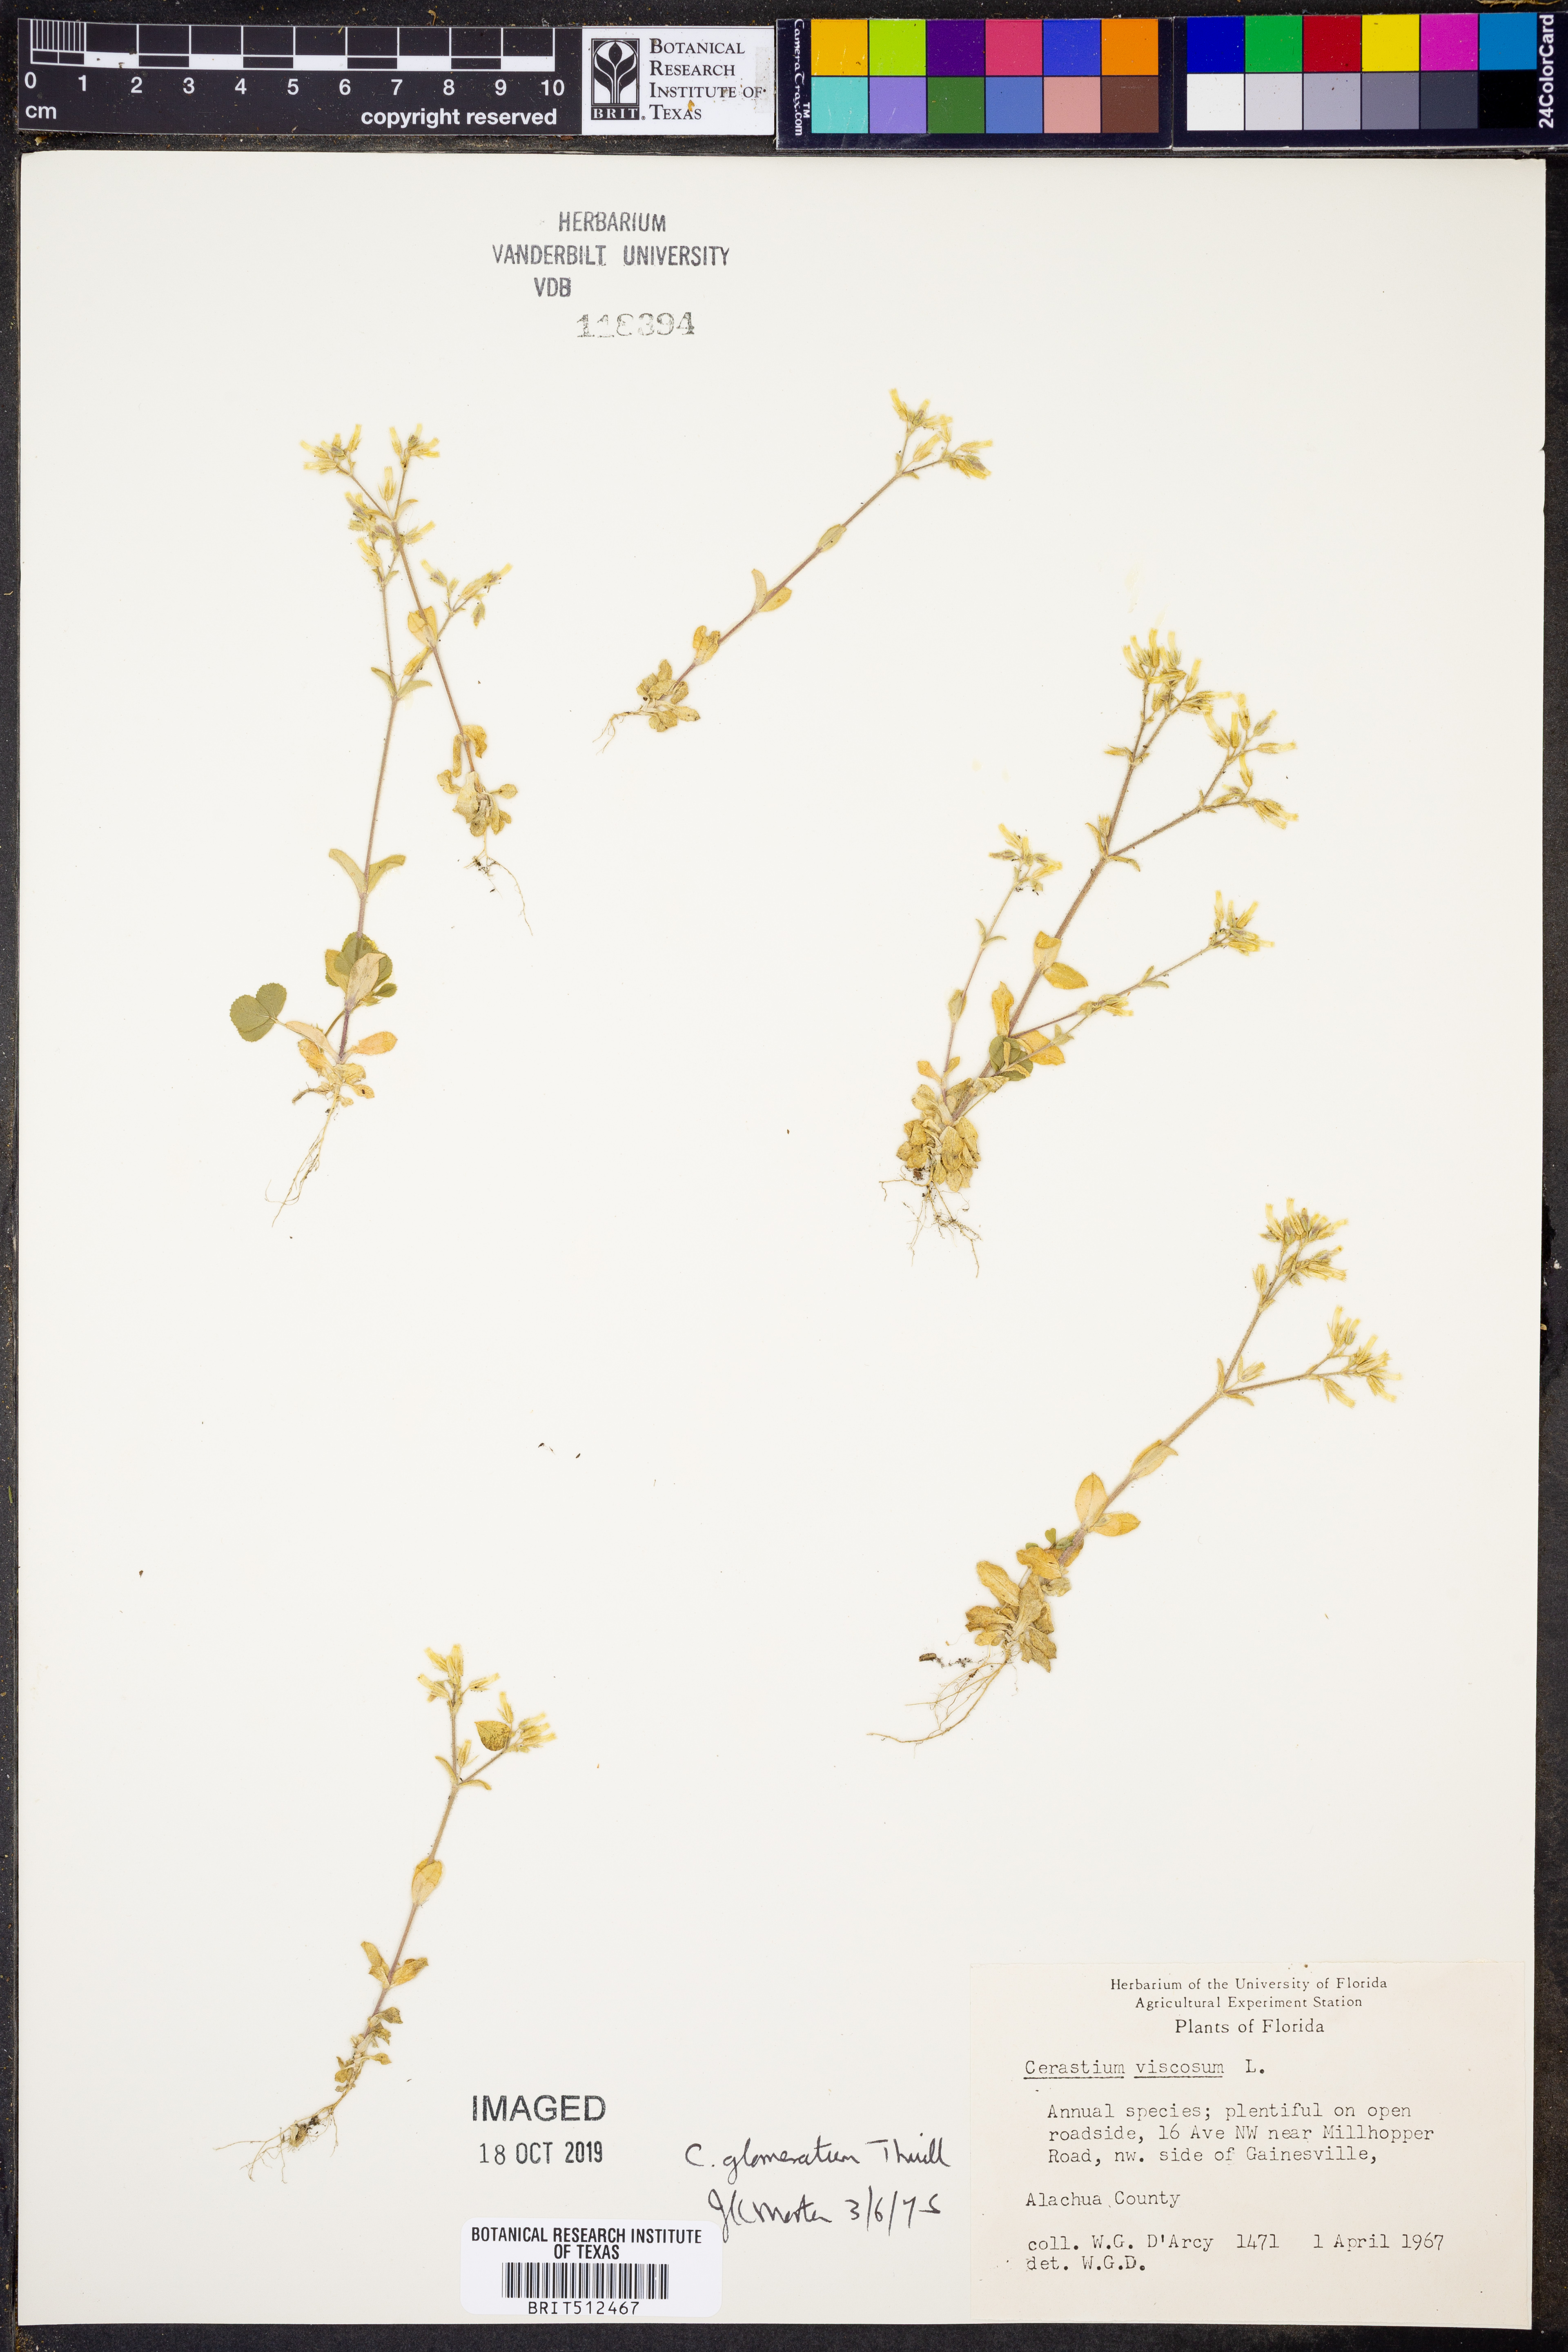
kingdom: Plantae
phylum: Tracheophyta
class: Magnoliopsida
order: Caryophyllales
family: Caryophyllaceae
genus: Cerastium
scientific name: Cerastium holosteoides
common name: Big chickweed
